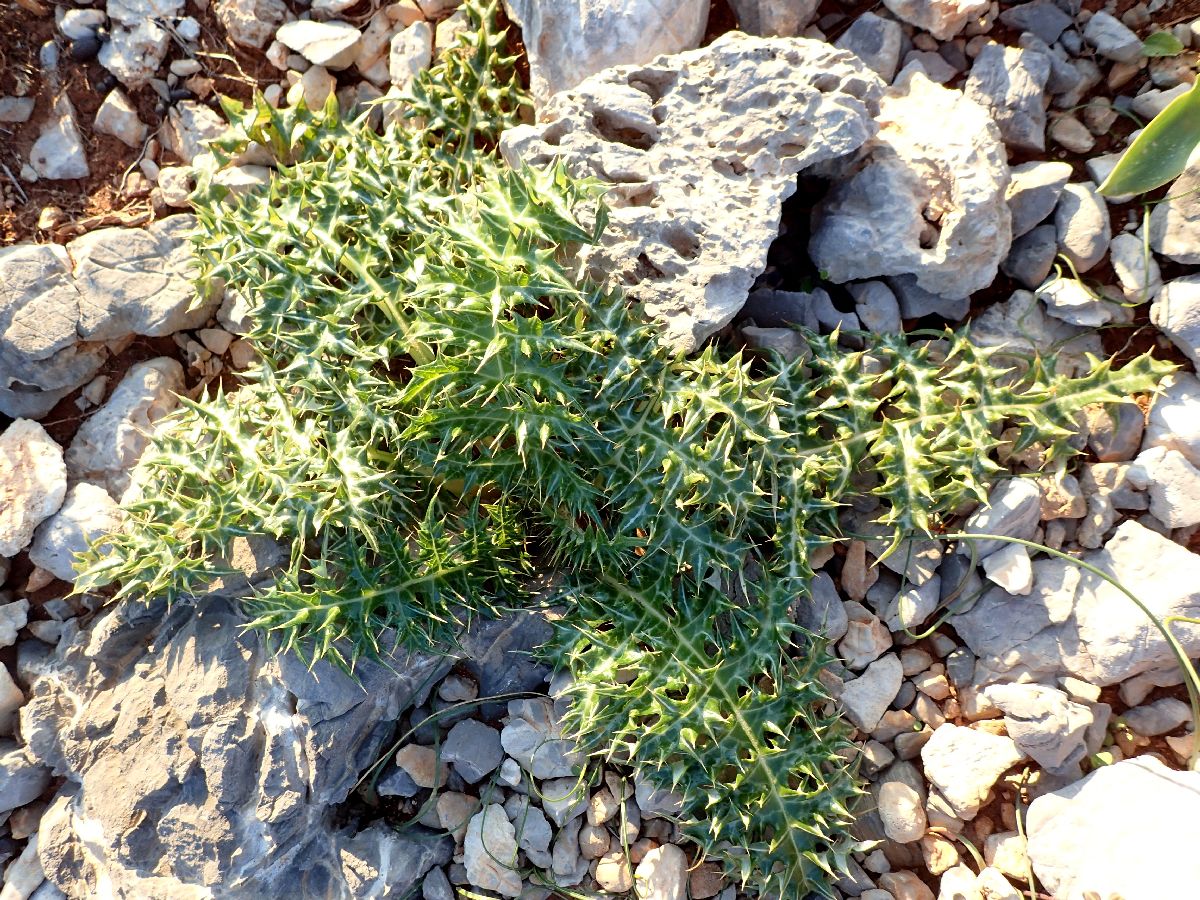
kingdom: Plantae
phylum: Tracheophyta
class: Magnoliopsida
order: Asterales
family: Asteraceae
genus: Cynara
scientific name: Cynara cornigera
